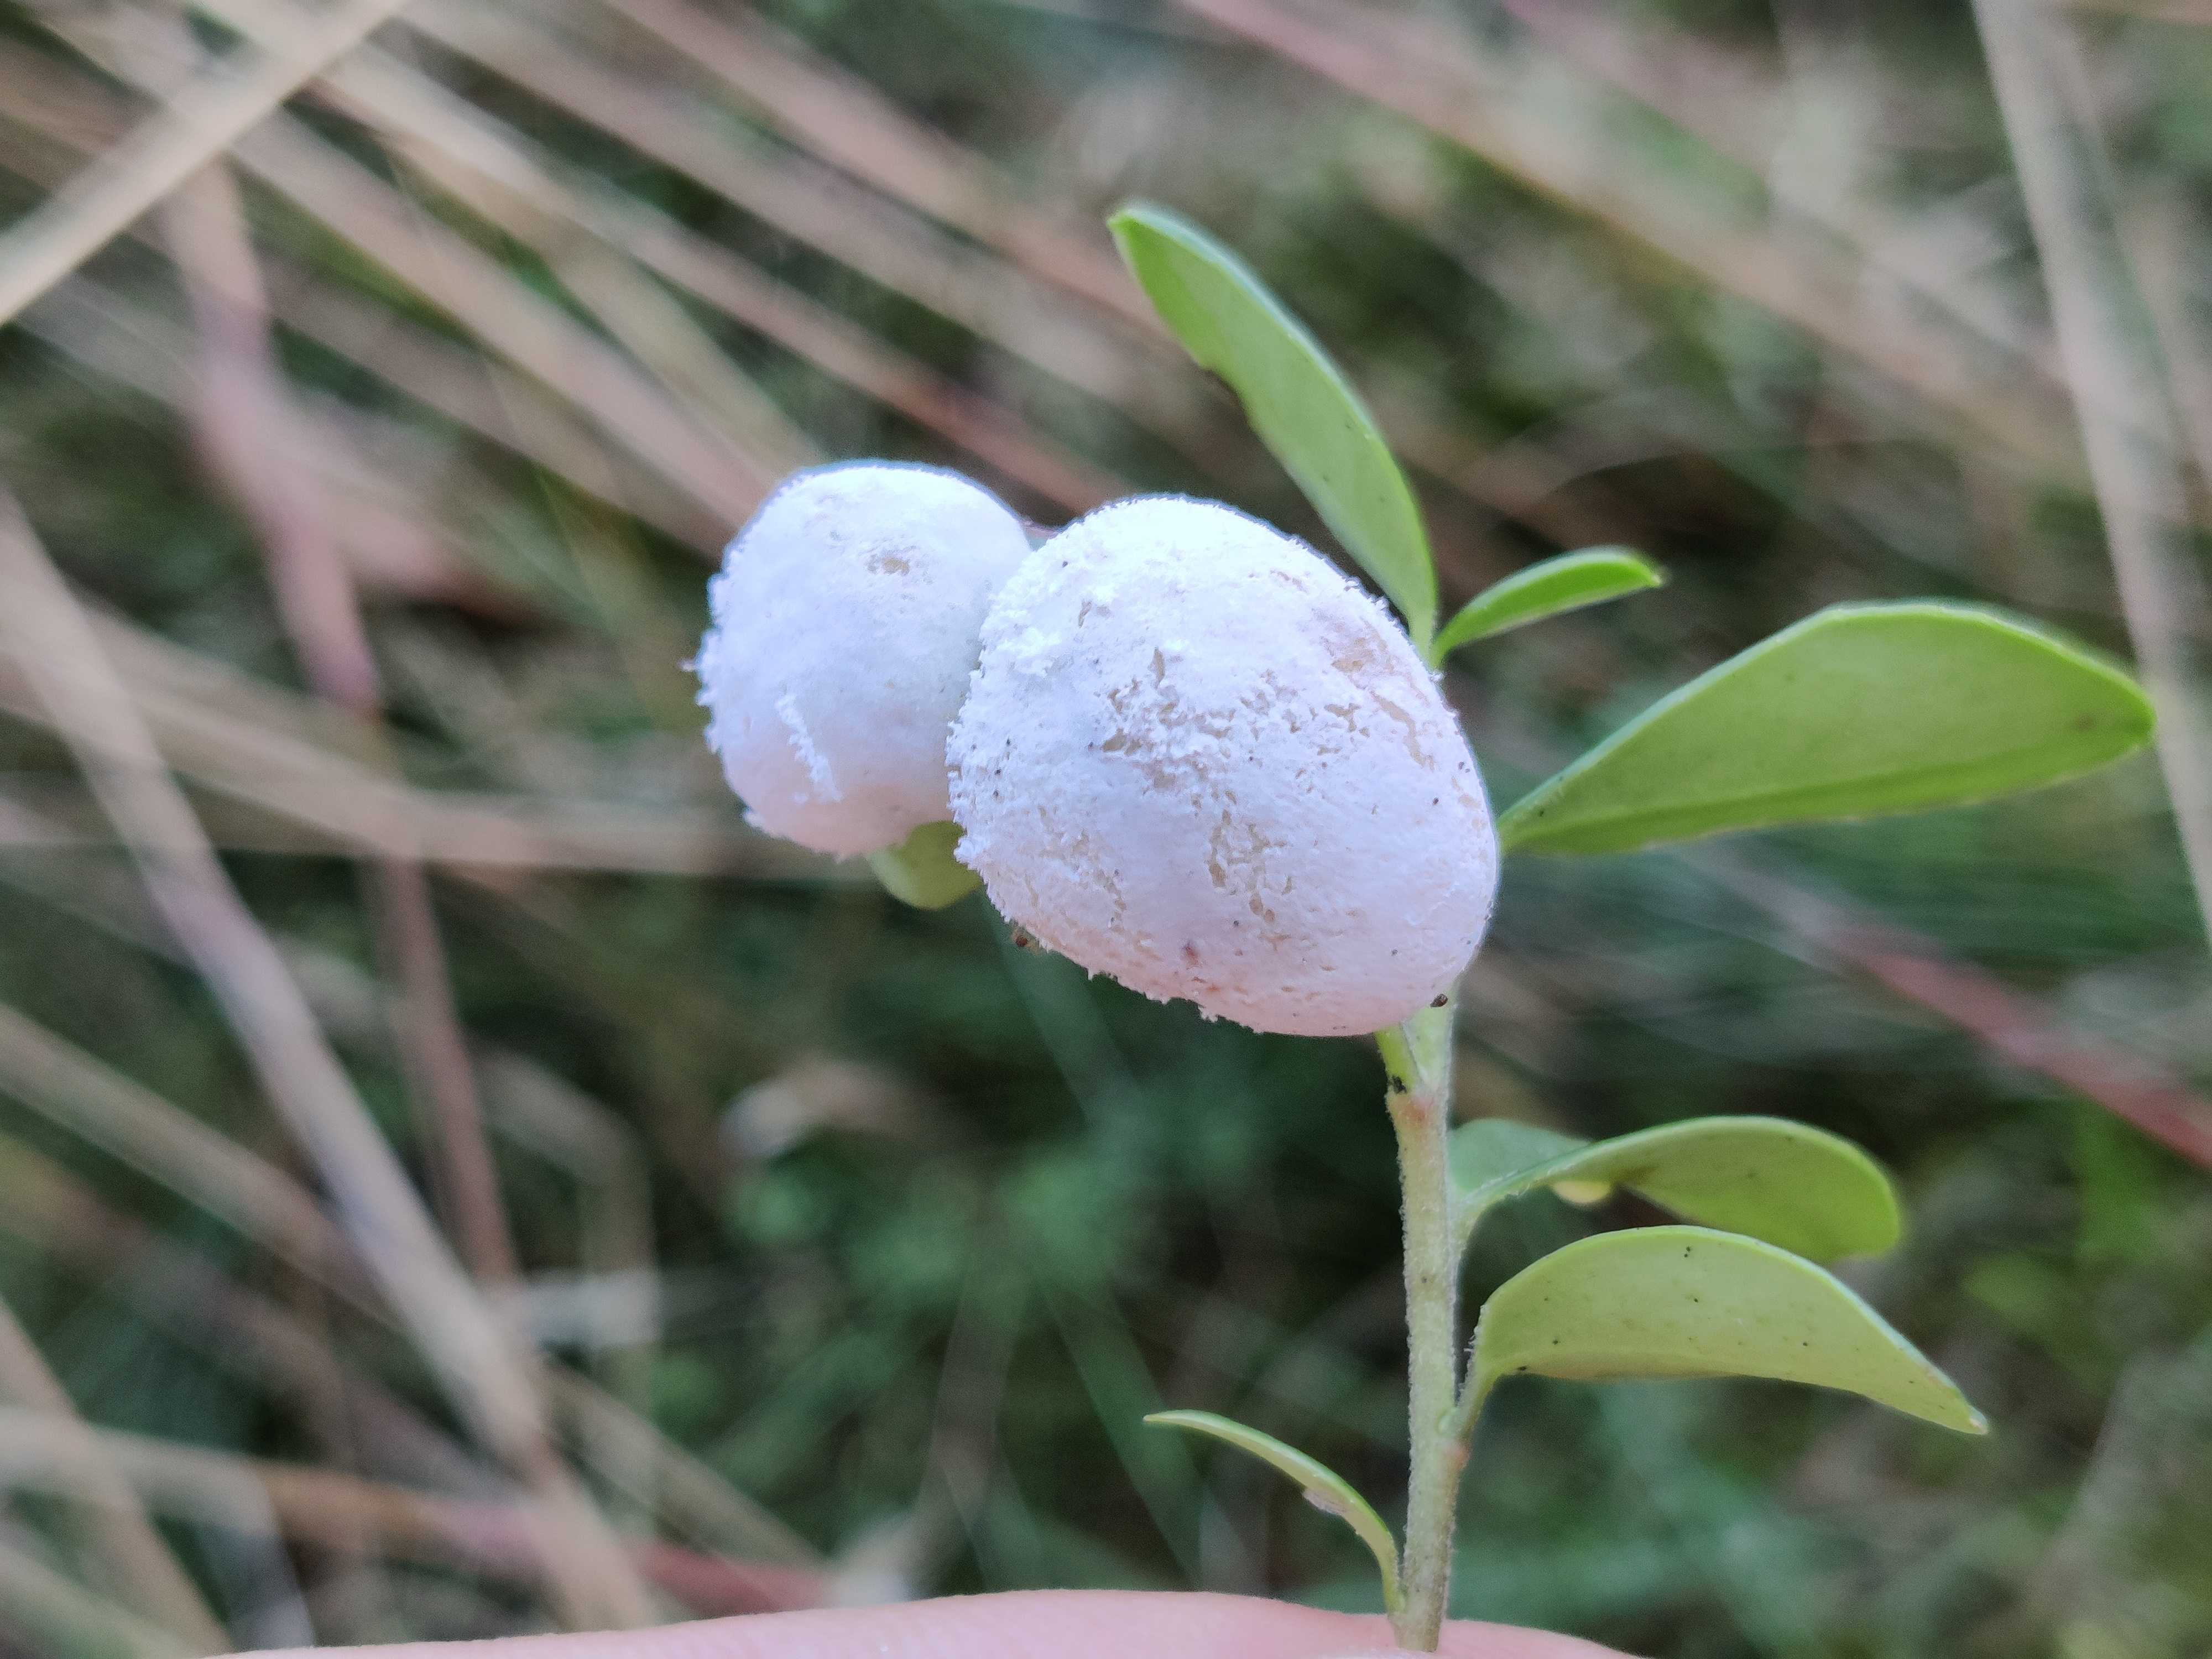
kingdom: Fungi
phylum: Basidiomycota
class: Exobasidiomycetes
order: Exobasidiales
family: Exobasidiaceae
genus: Exobasidium
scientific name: Exobasidium vaccinii
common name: tyttebærblad-bøllesvamp
